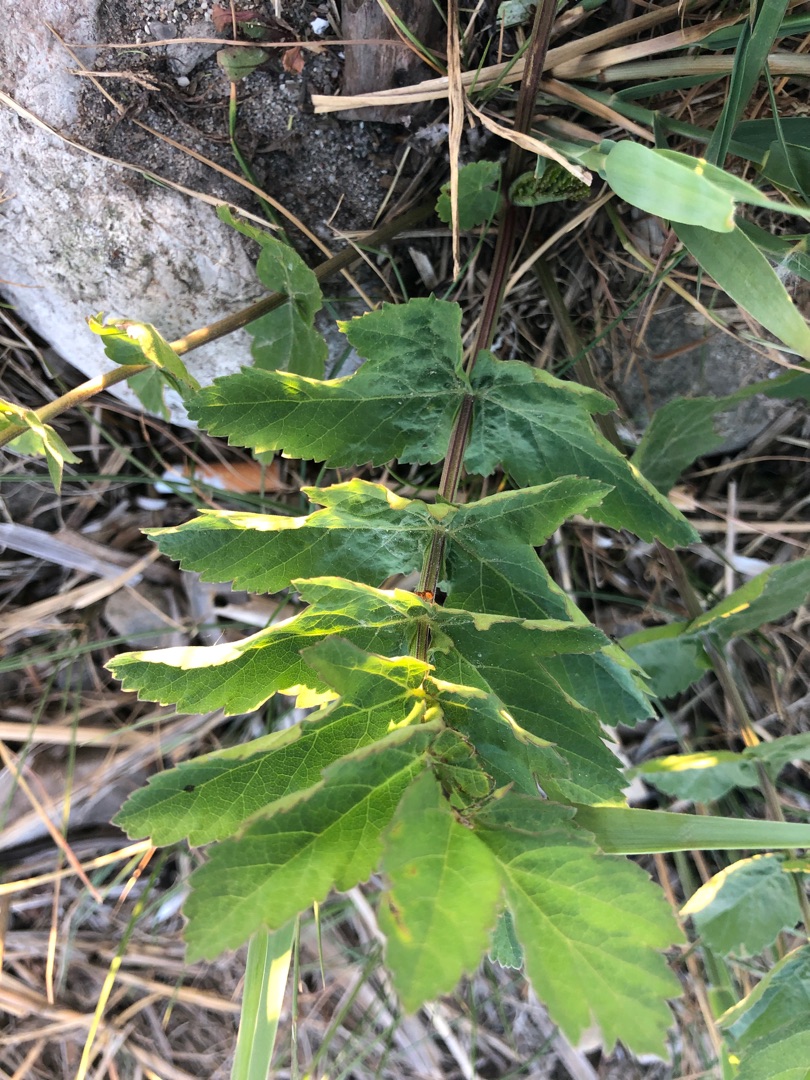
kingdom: Plantae
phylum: Tracheophyta
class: Magnoliopsida
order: Apiales
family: Apiaceae
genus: Pastinaca
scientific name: Pastinaca sativa
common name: Pastinak
